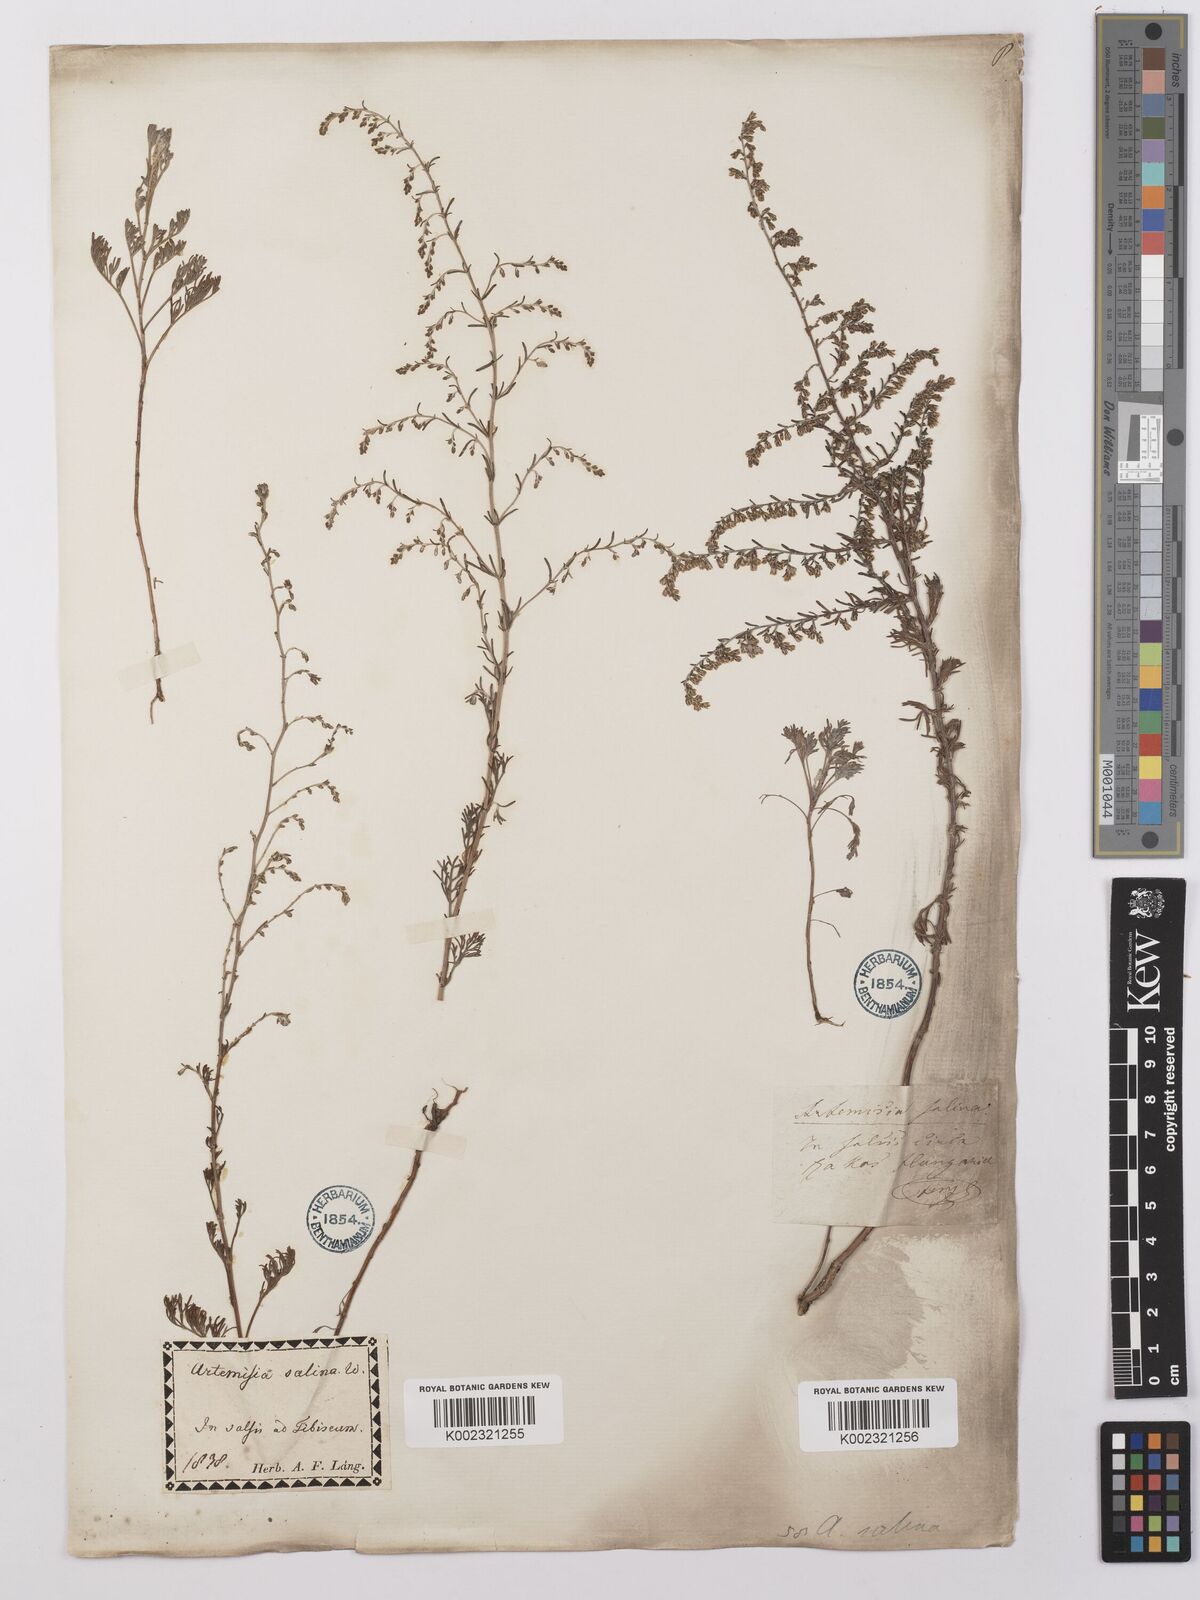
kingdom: Plantae
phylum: Tracheophyta
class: Magnoliopsida
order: Asterales
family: Asteraceae
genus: Artemisia
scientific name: Artemisia maritima
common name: Wormseed
